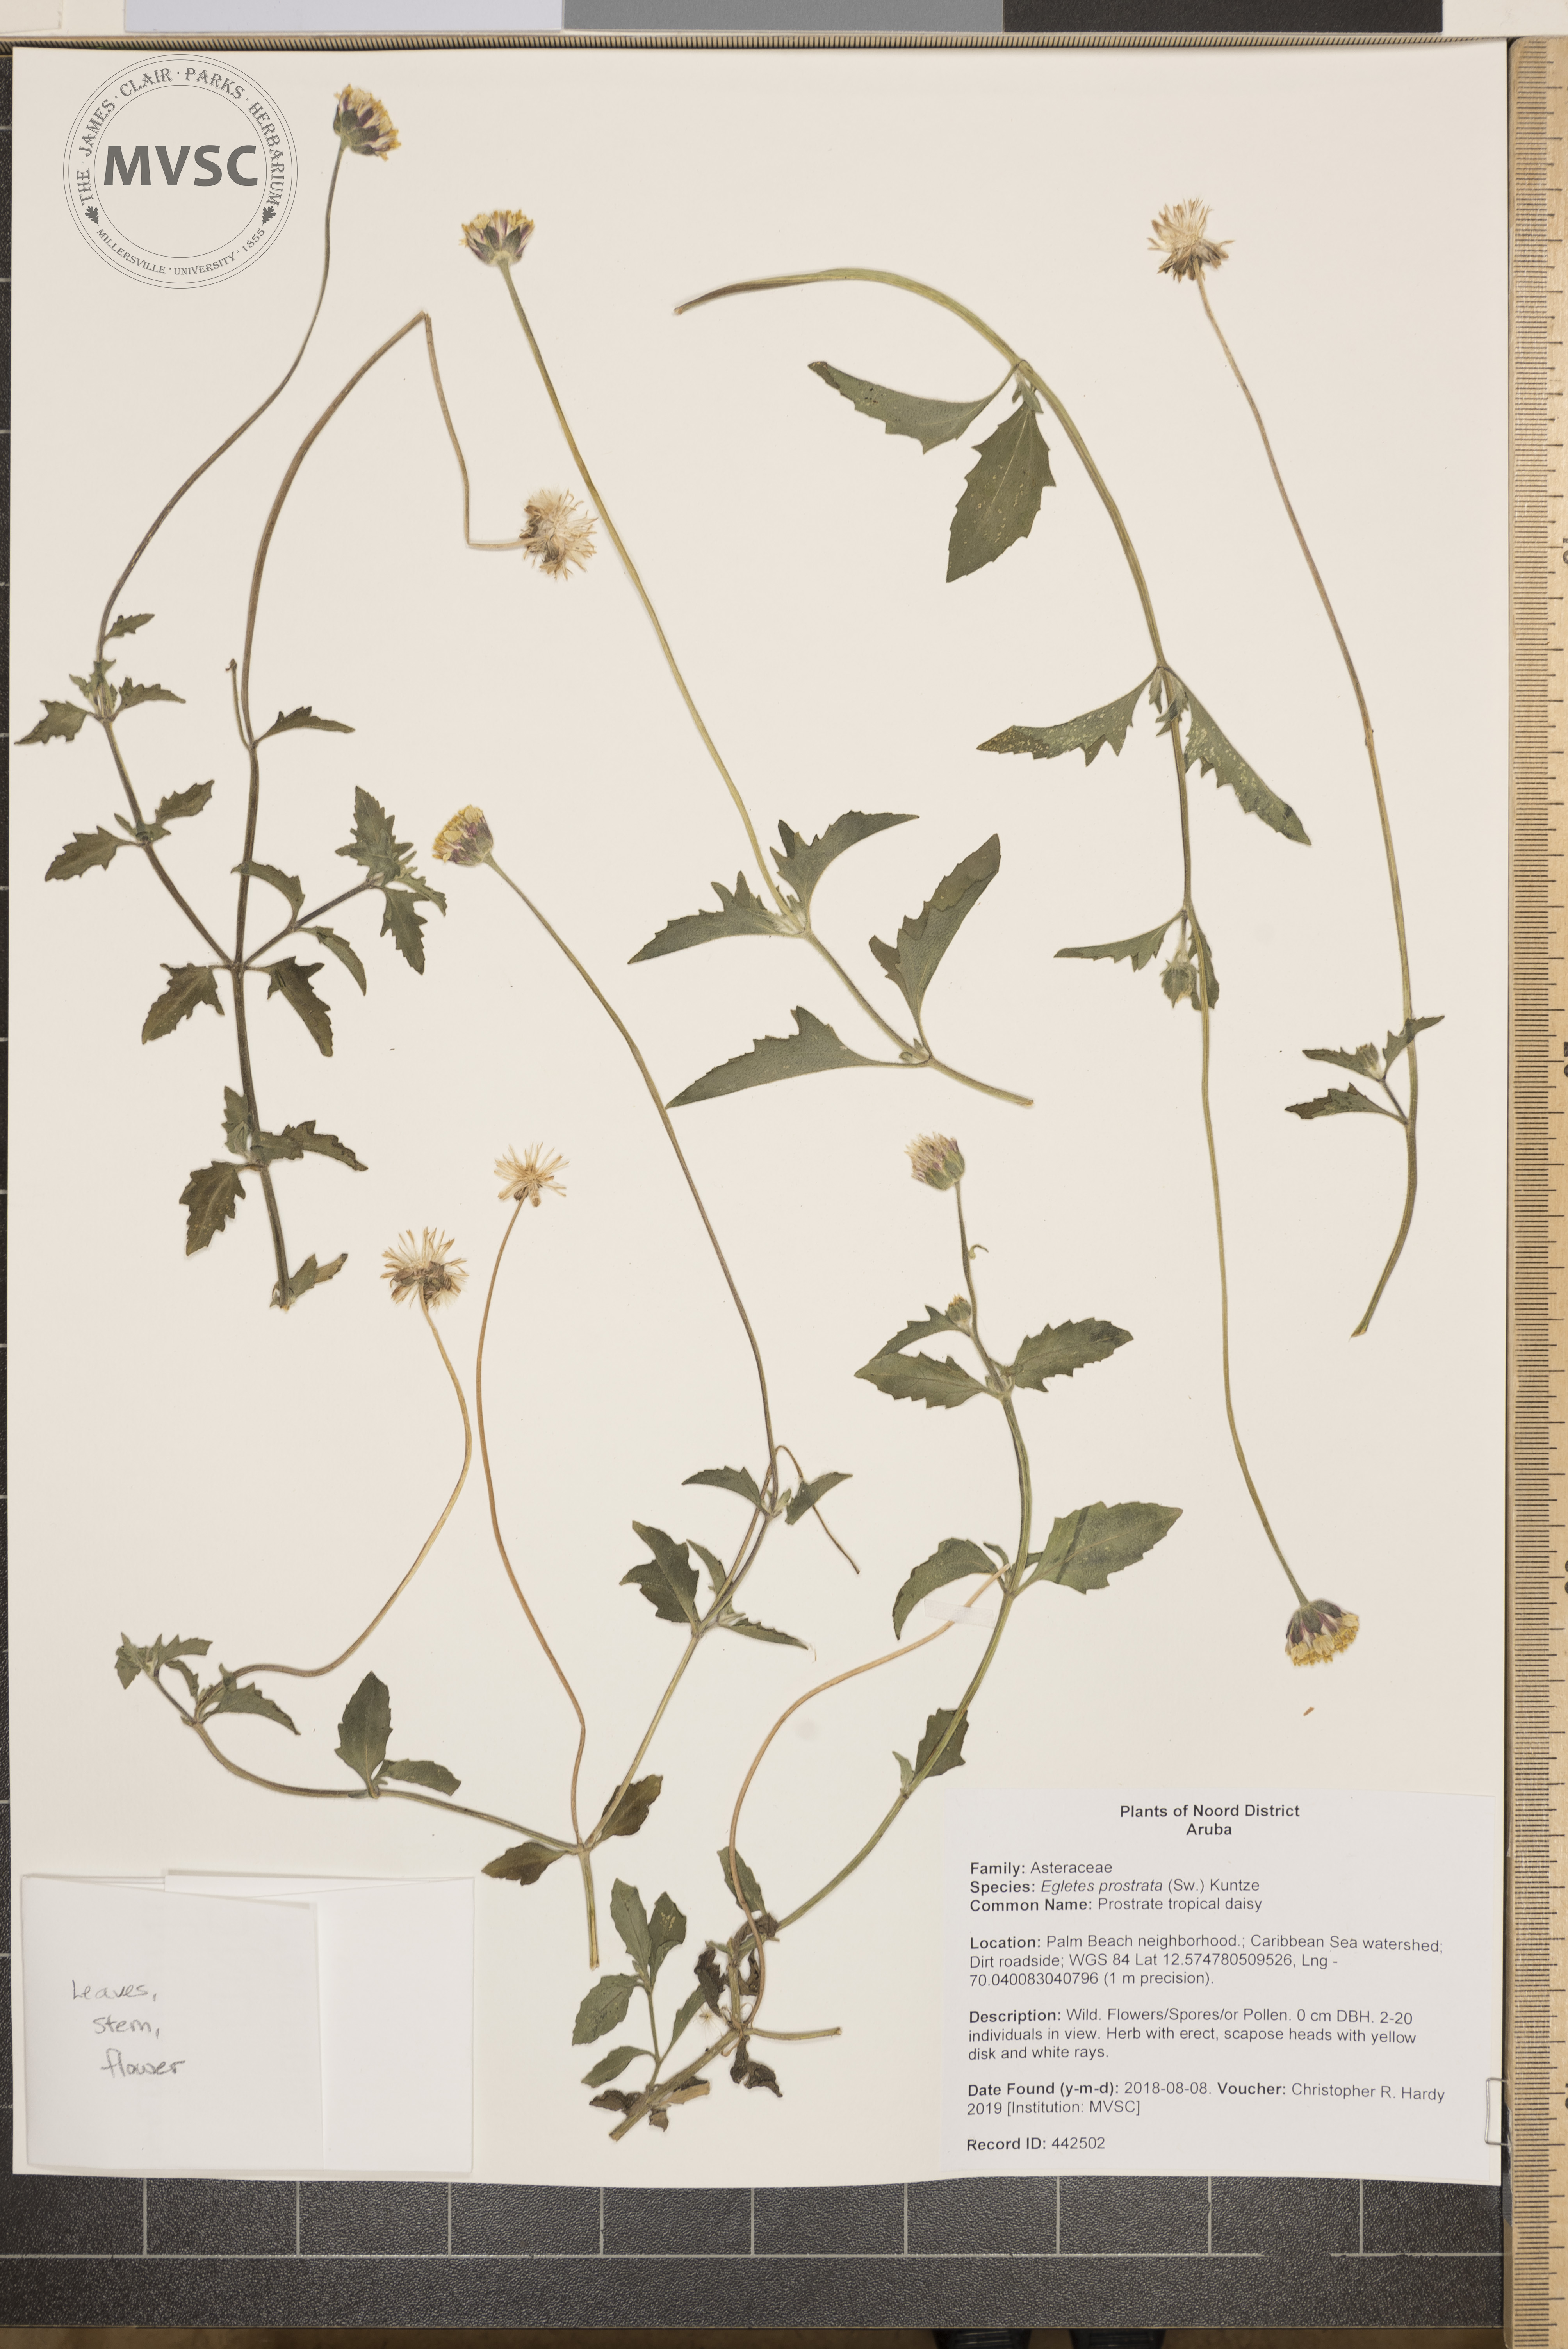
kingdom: Plantae
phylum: Tracheophyta
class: Magnoliopsida
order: Asterales
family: Asteraceae
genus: Egletes
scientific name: Egletes prostrata
